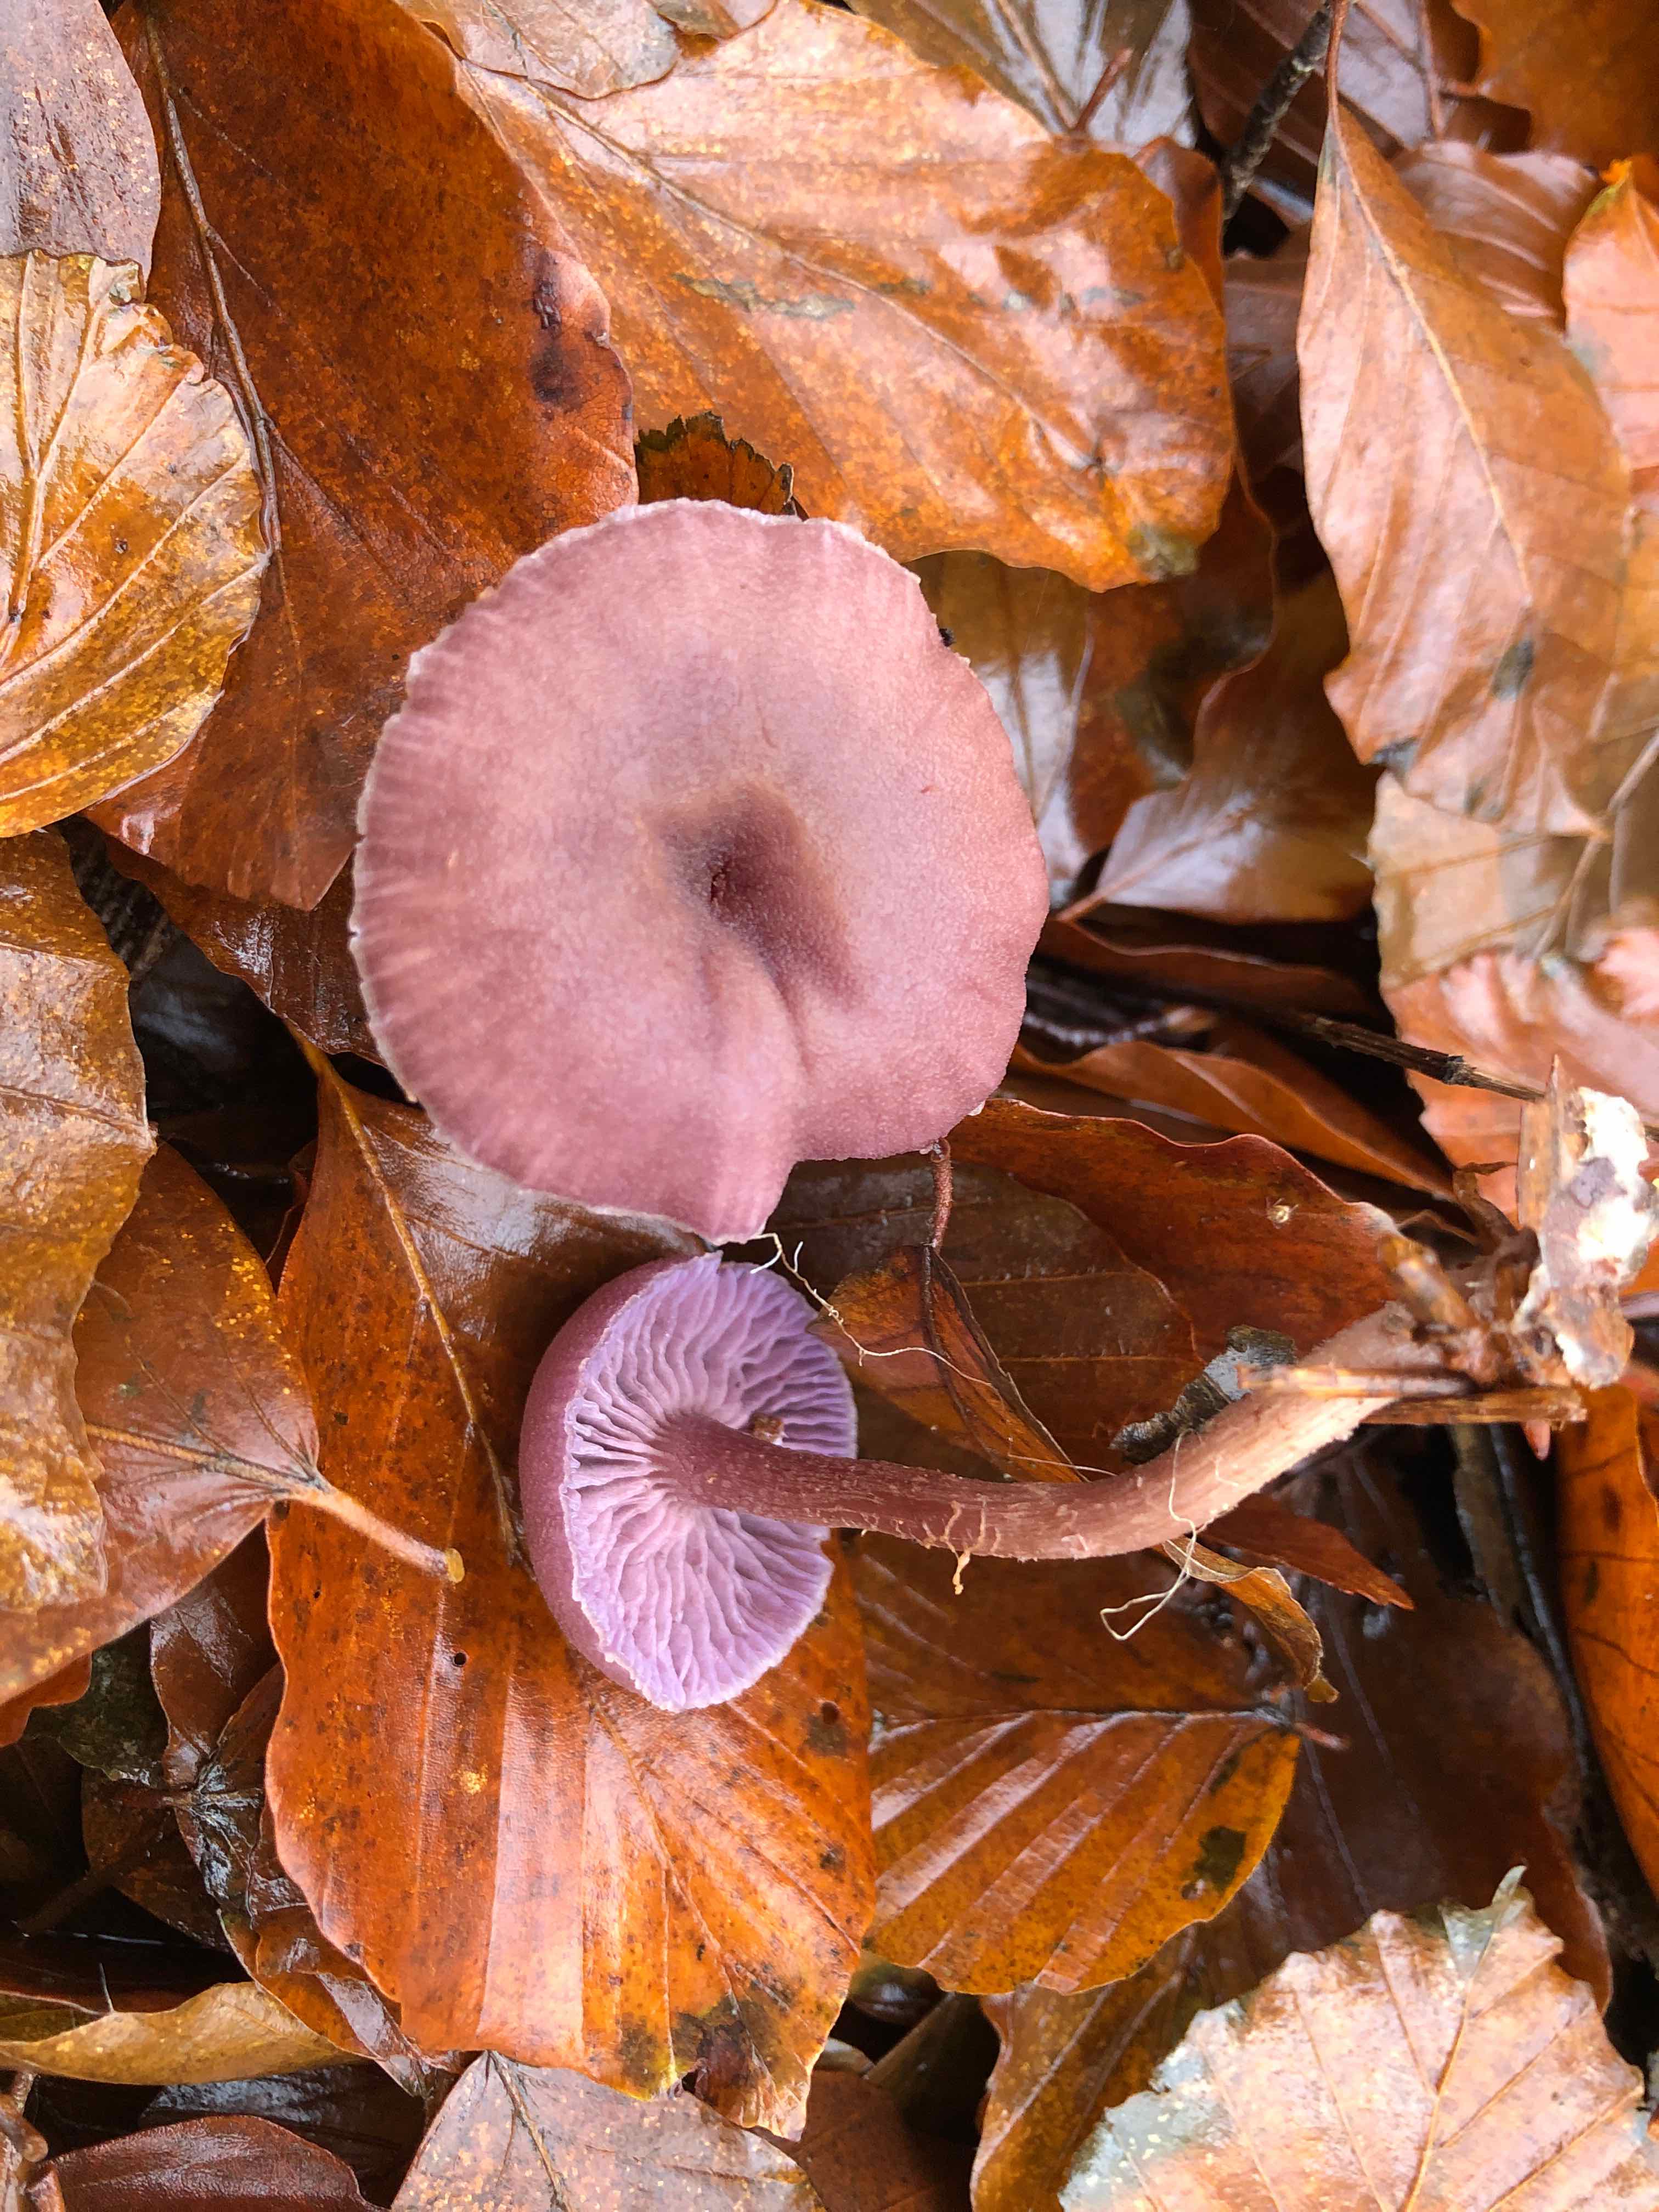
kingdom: Fungi
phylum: Basidiomycota
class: Agaricomycetes
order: Agaricales
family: Hydnangiaceae
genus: Laccaria
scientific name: Laccaria amethystina
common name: violet ametysthat
